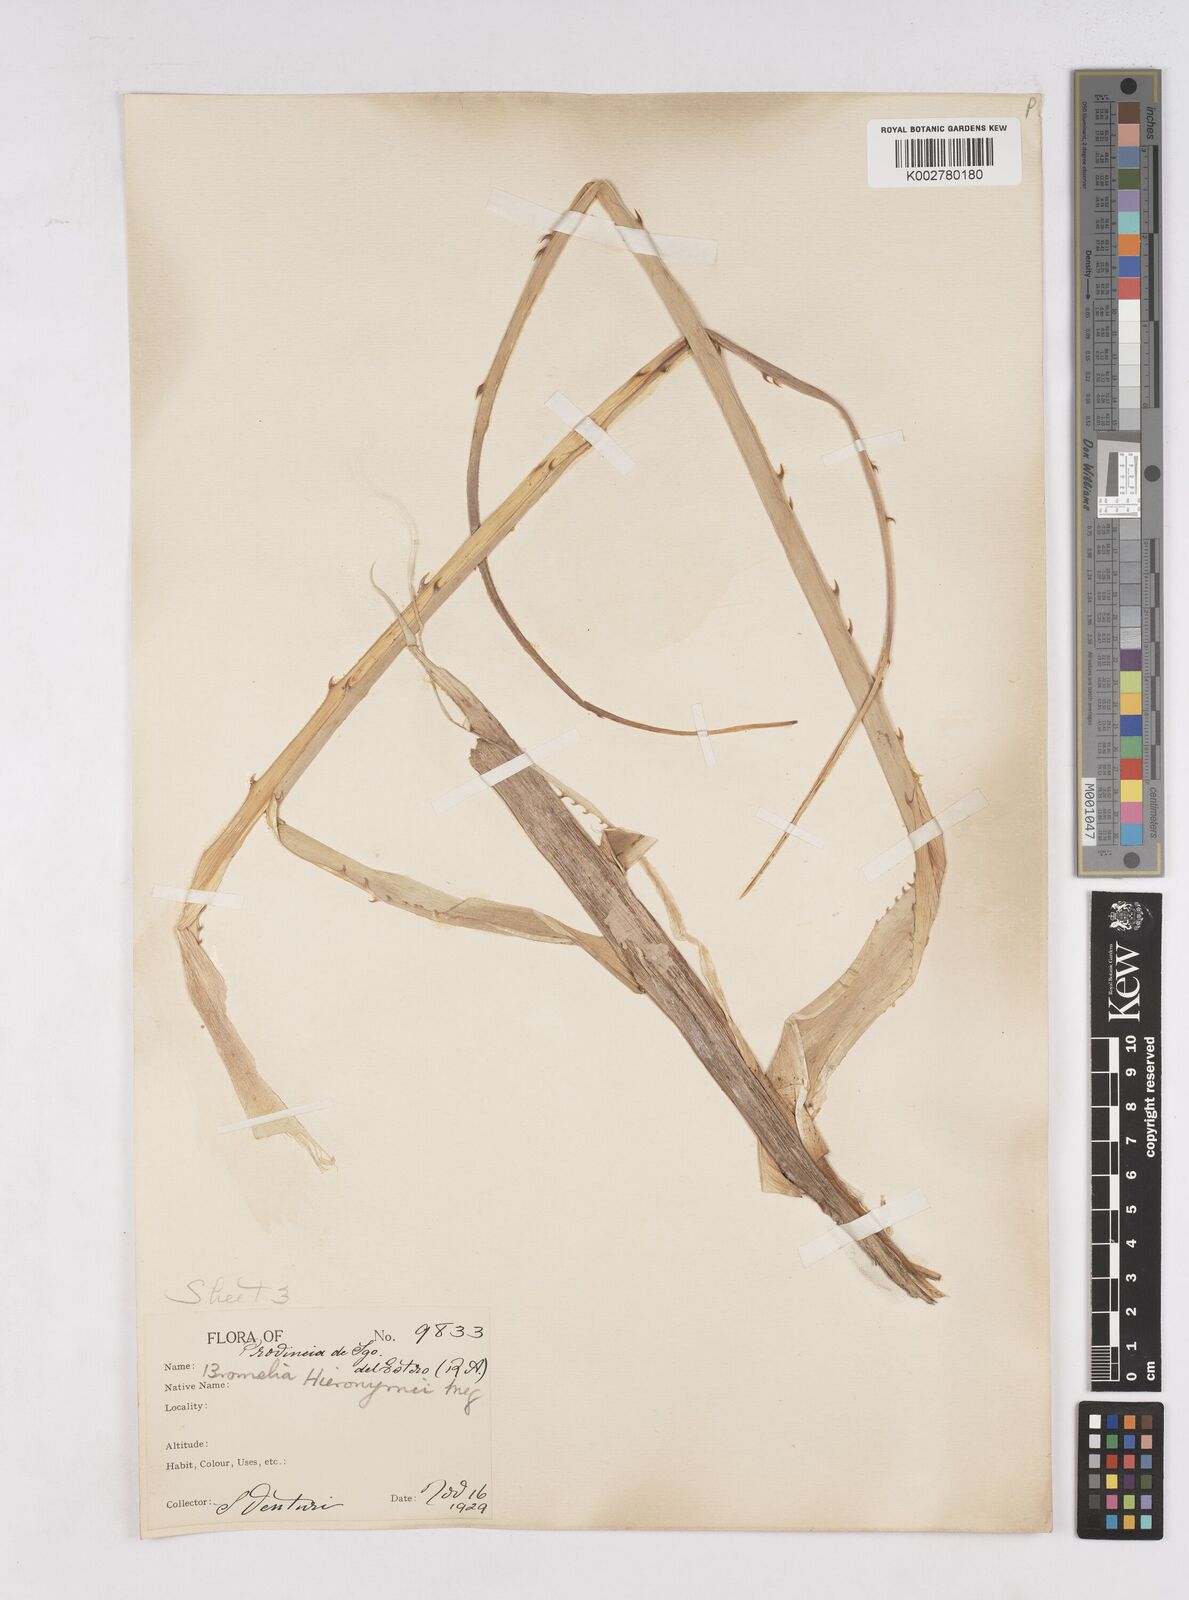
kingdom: Plantae
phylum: Tracheophyta
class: Liliopsida
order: Poales
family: Bromeliaceae
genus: Bromelia
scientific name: Bromelia hieronymi
